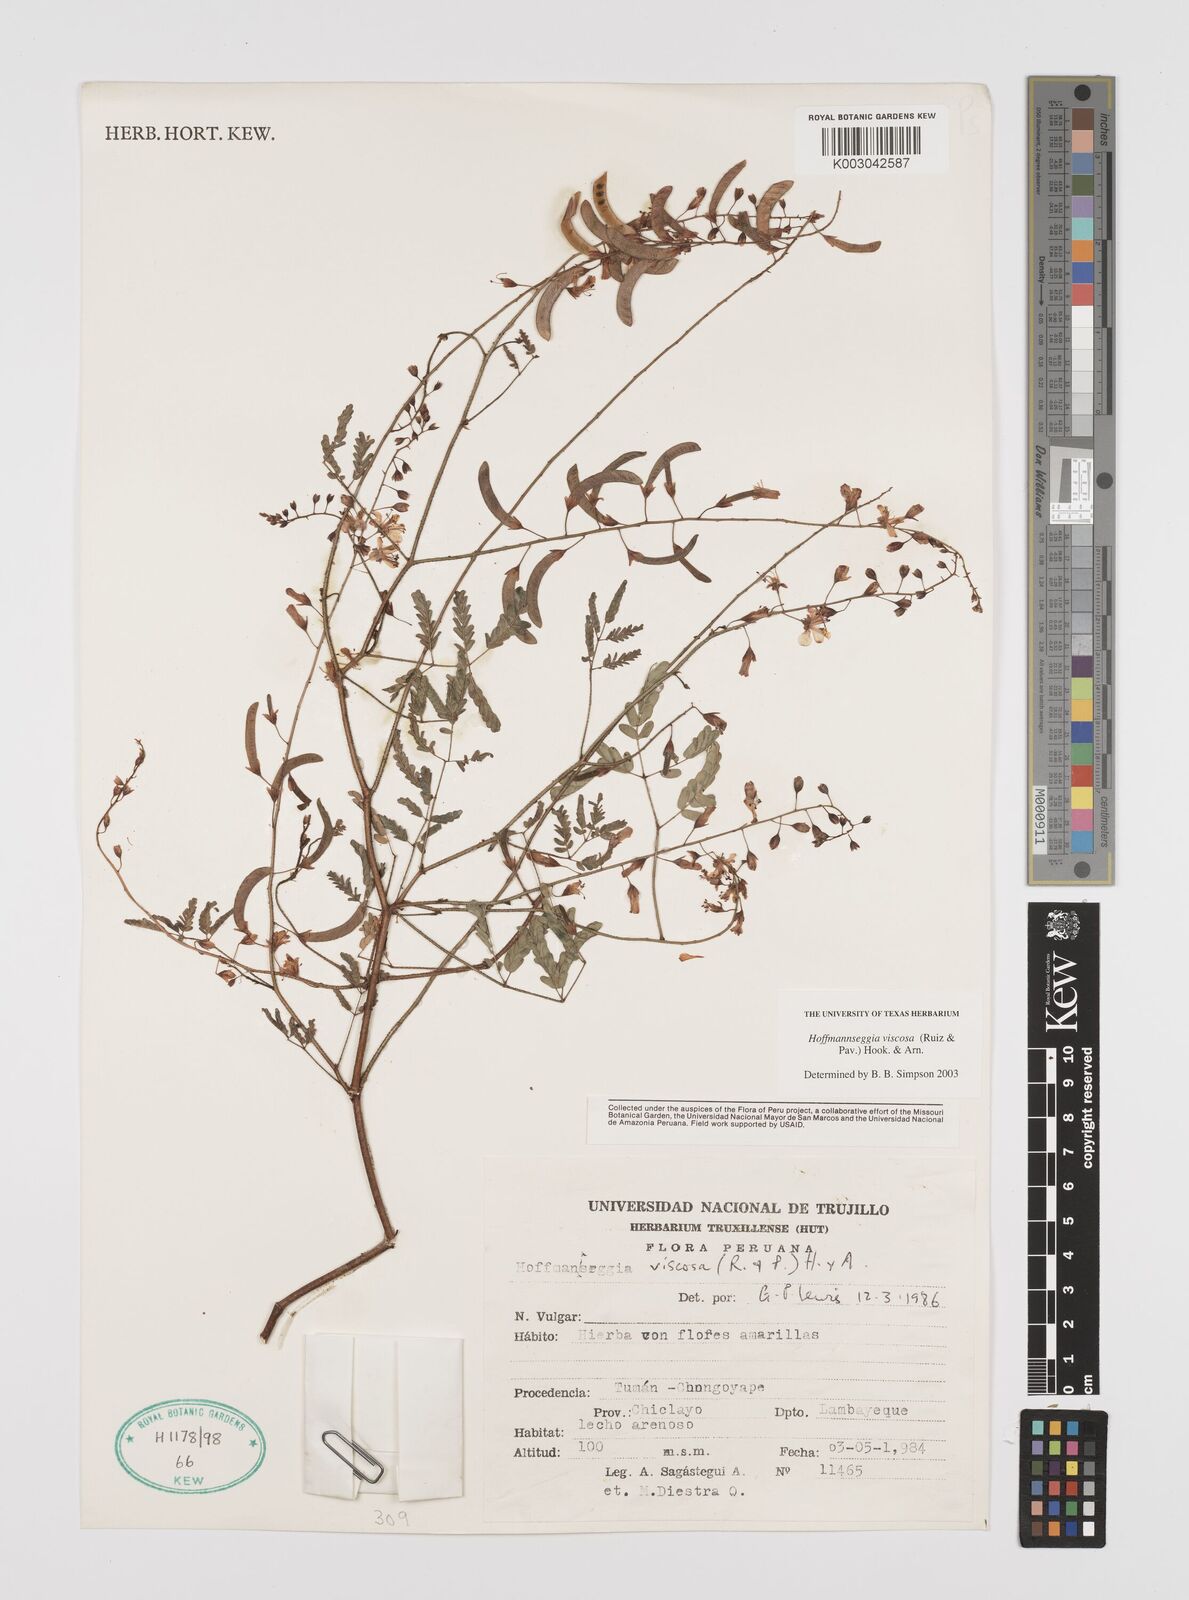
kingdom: Plantae
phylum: Tracheophyta
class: Magnoliopsida
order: Fabales
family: Fabaceae
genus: Hoffmannseggia
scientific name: Hoffmannseggia viscosa
